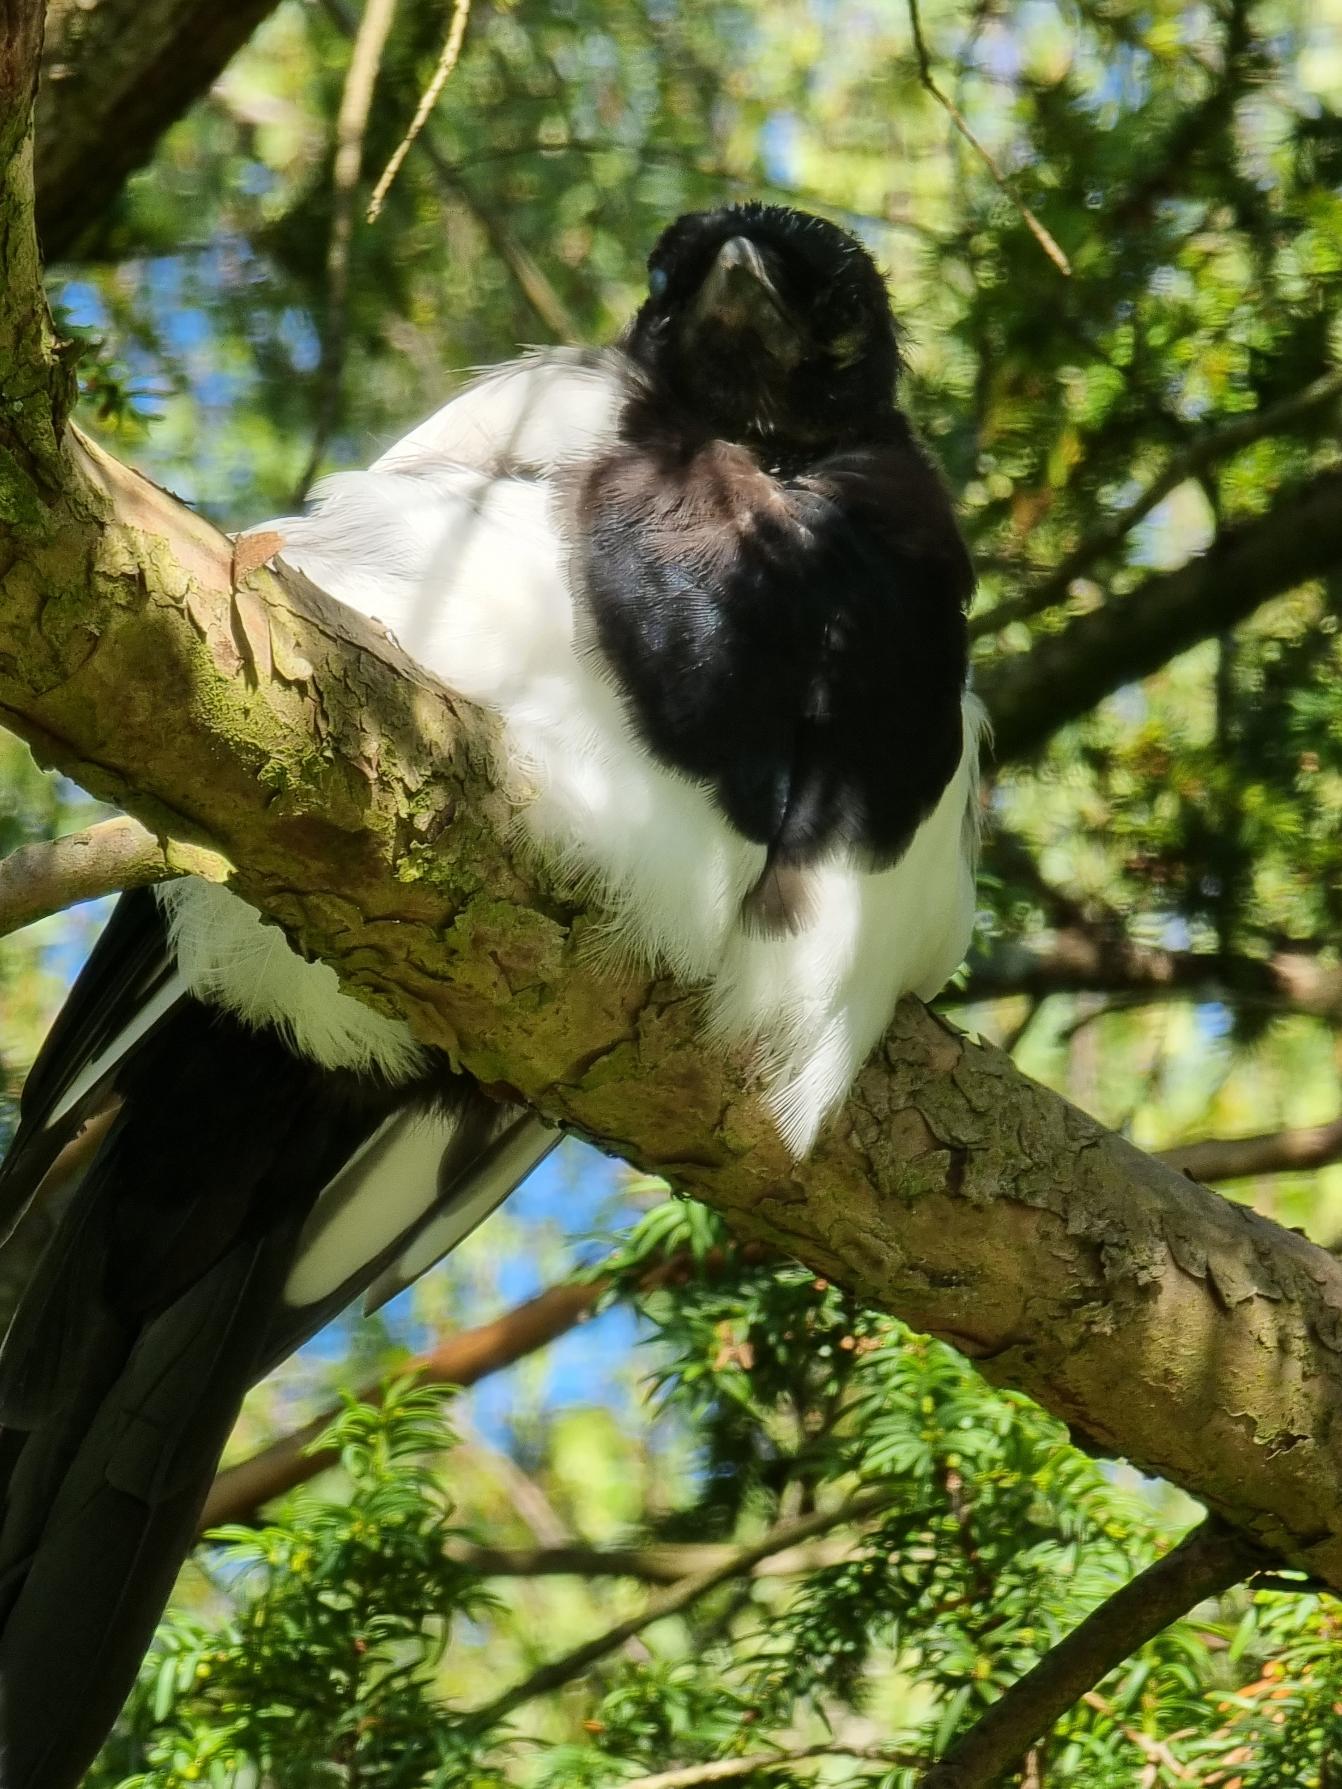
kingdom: Animalia
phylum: Chordata
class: Aves
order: Passeriformes
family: Corvidae
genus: Pica
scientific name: Pica pica
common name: Husskade
